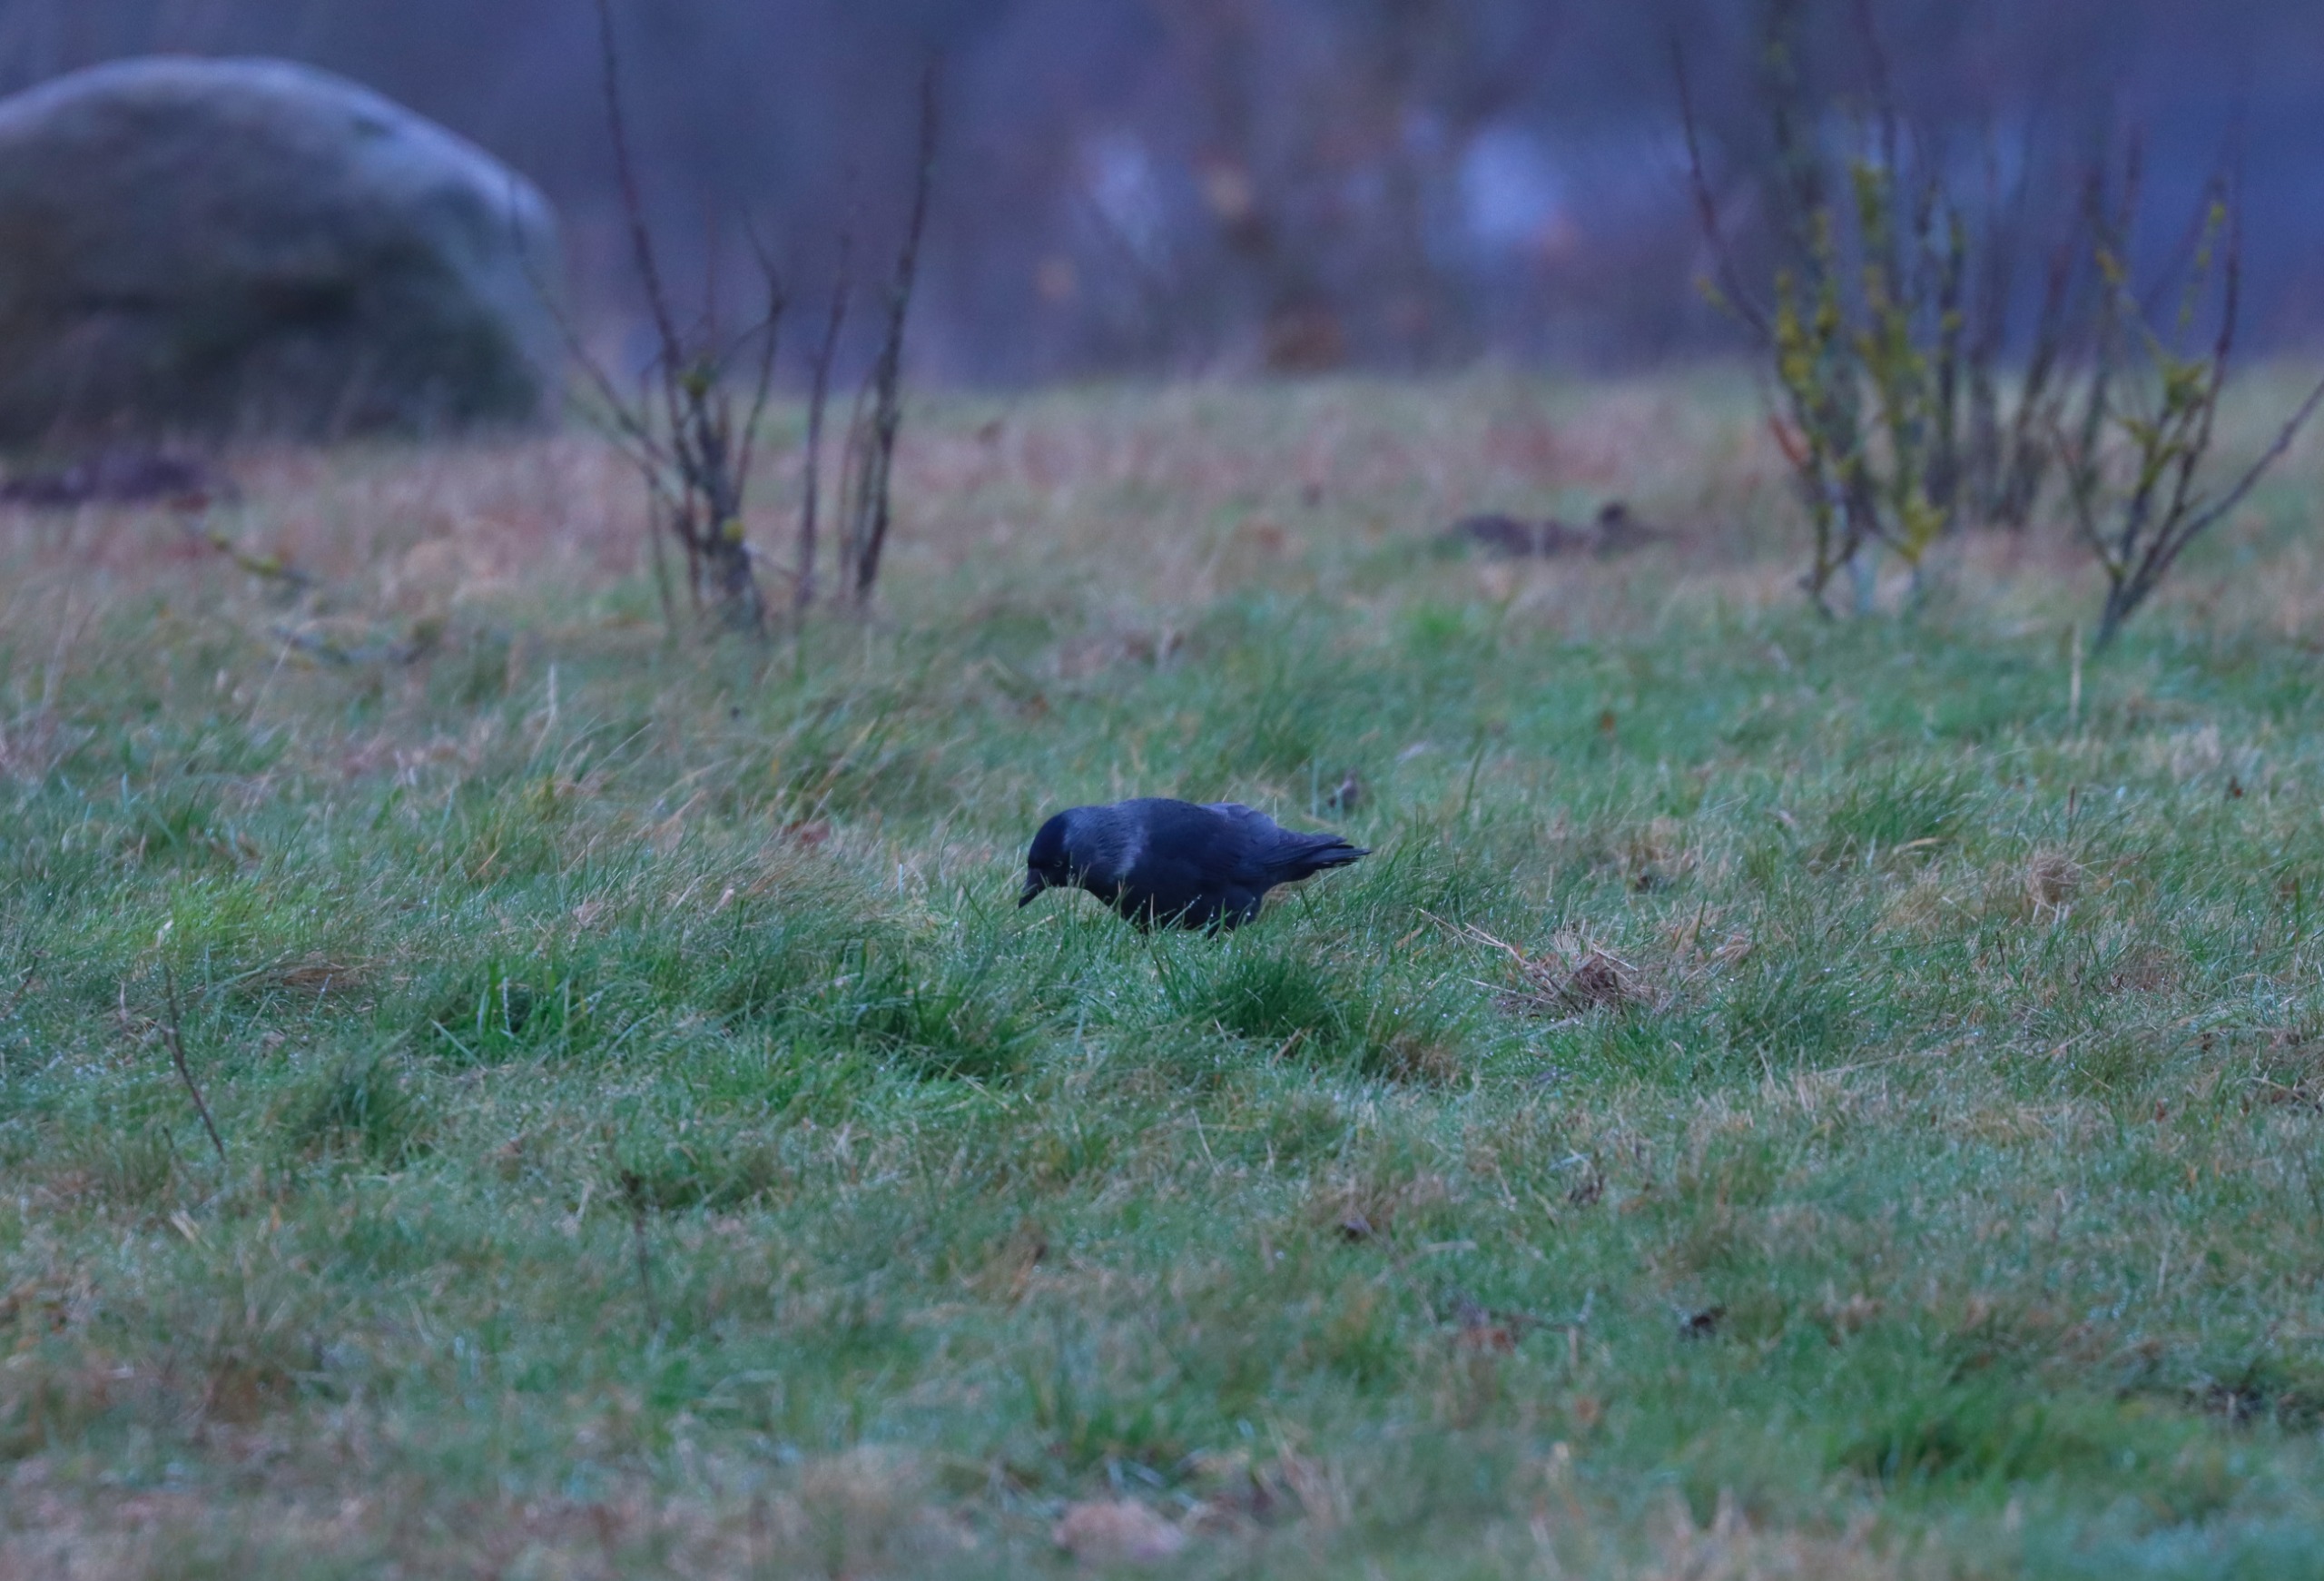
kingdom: Animalia
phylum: Chordata
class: Aves
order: Passeriformes
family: Corvidae
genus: Coloeus
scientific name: Coloeus monedula
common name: Allike
